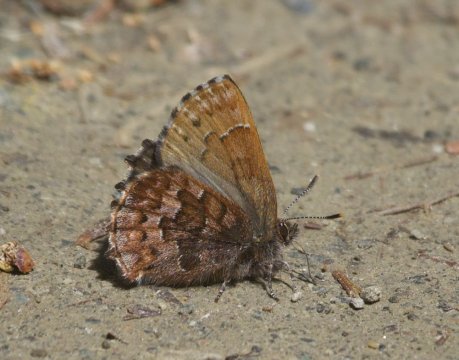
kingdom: Animalia
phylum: Arthropoda
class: Insecta
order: Lepidoptera
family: Lycaenidae
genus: Incisalia
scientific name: Incisalia niphon
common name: Eastern Pine Elfin
